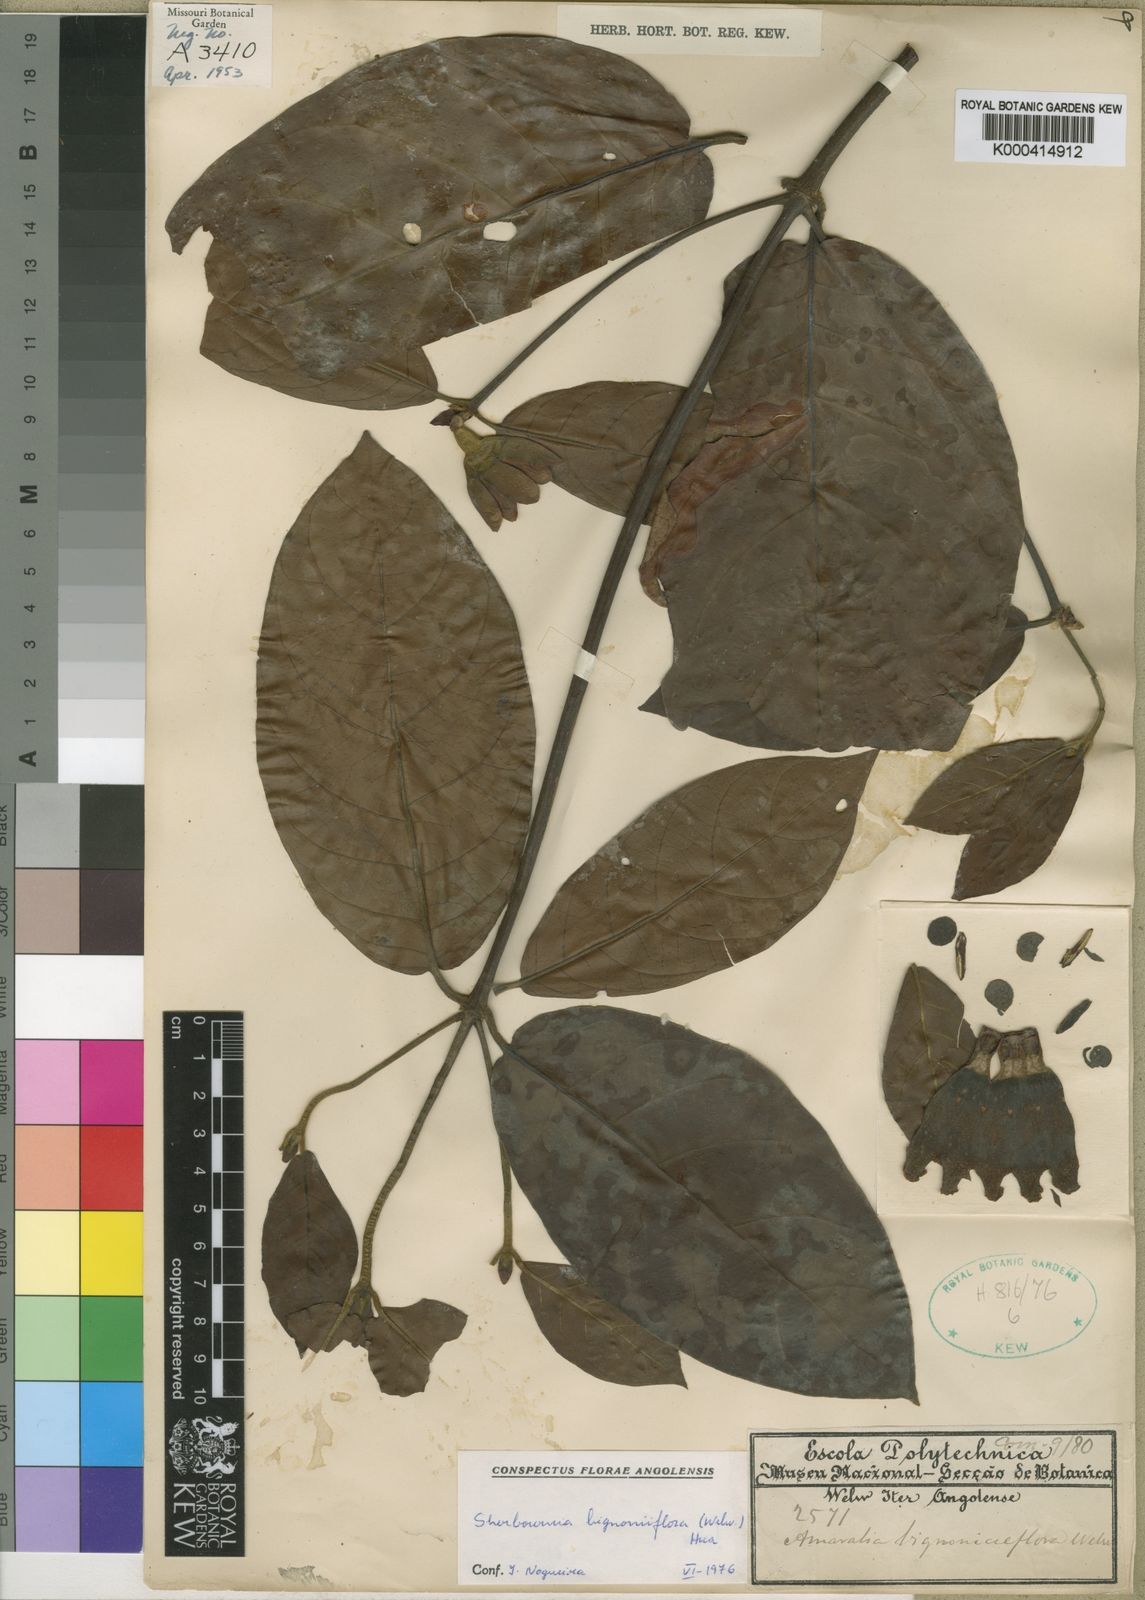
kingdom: Plantae
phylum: Tracheophyta
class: Magnoliopsida
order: Gentianales
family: Rubiaceae
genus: Sherbournia
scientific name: Sherbournia bignoniiflora
